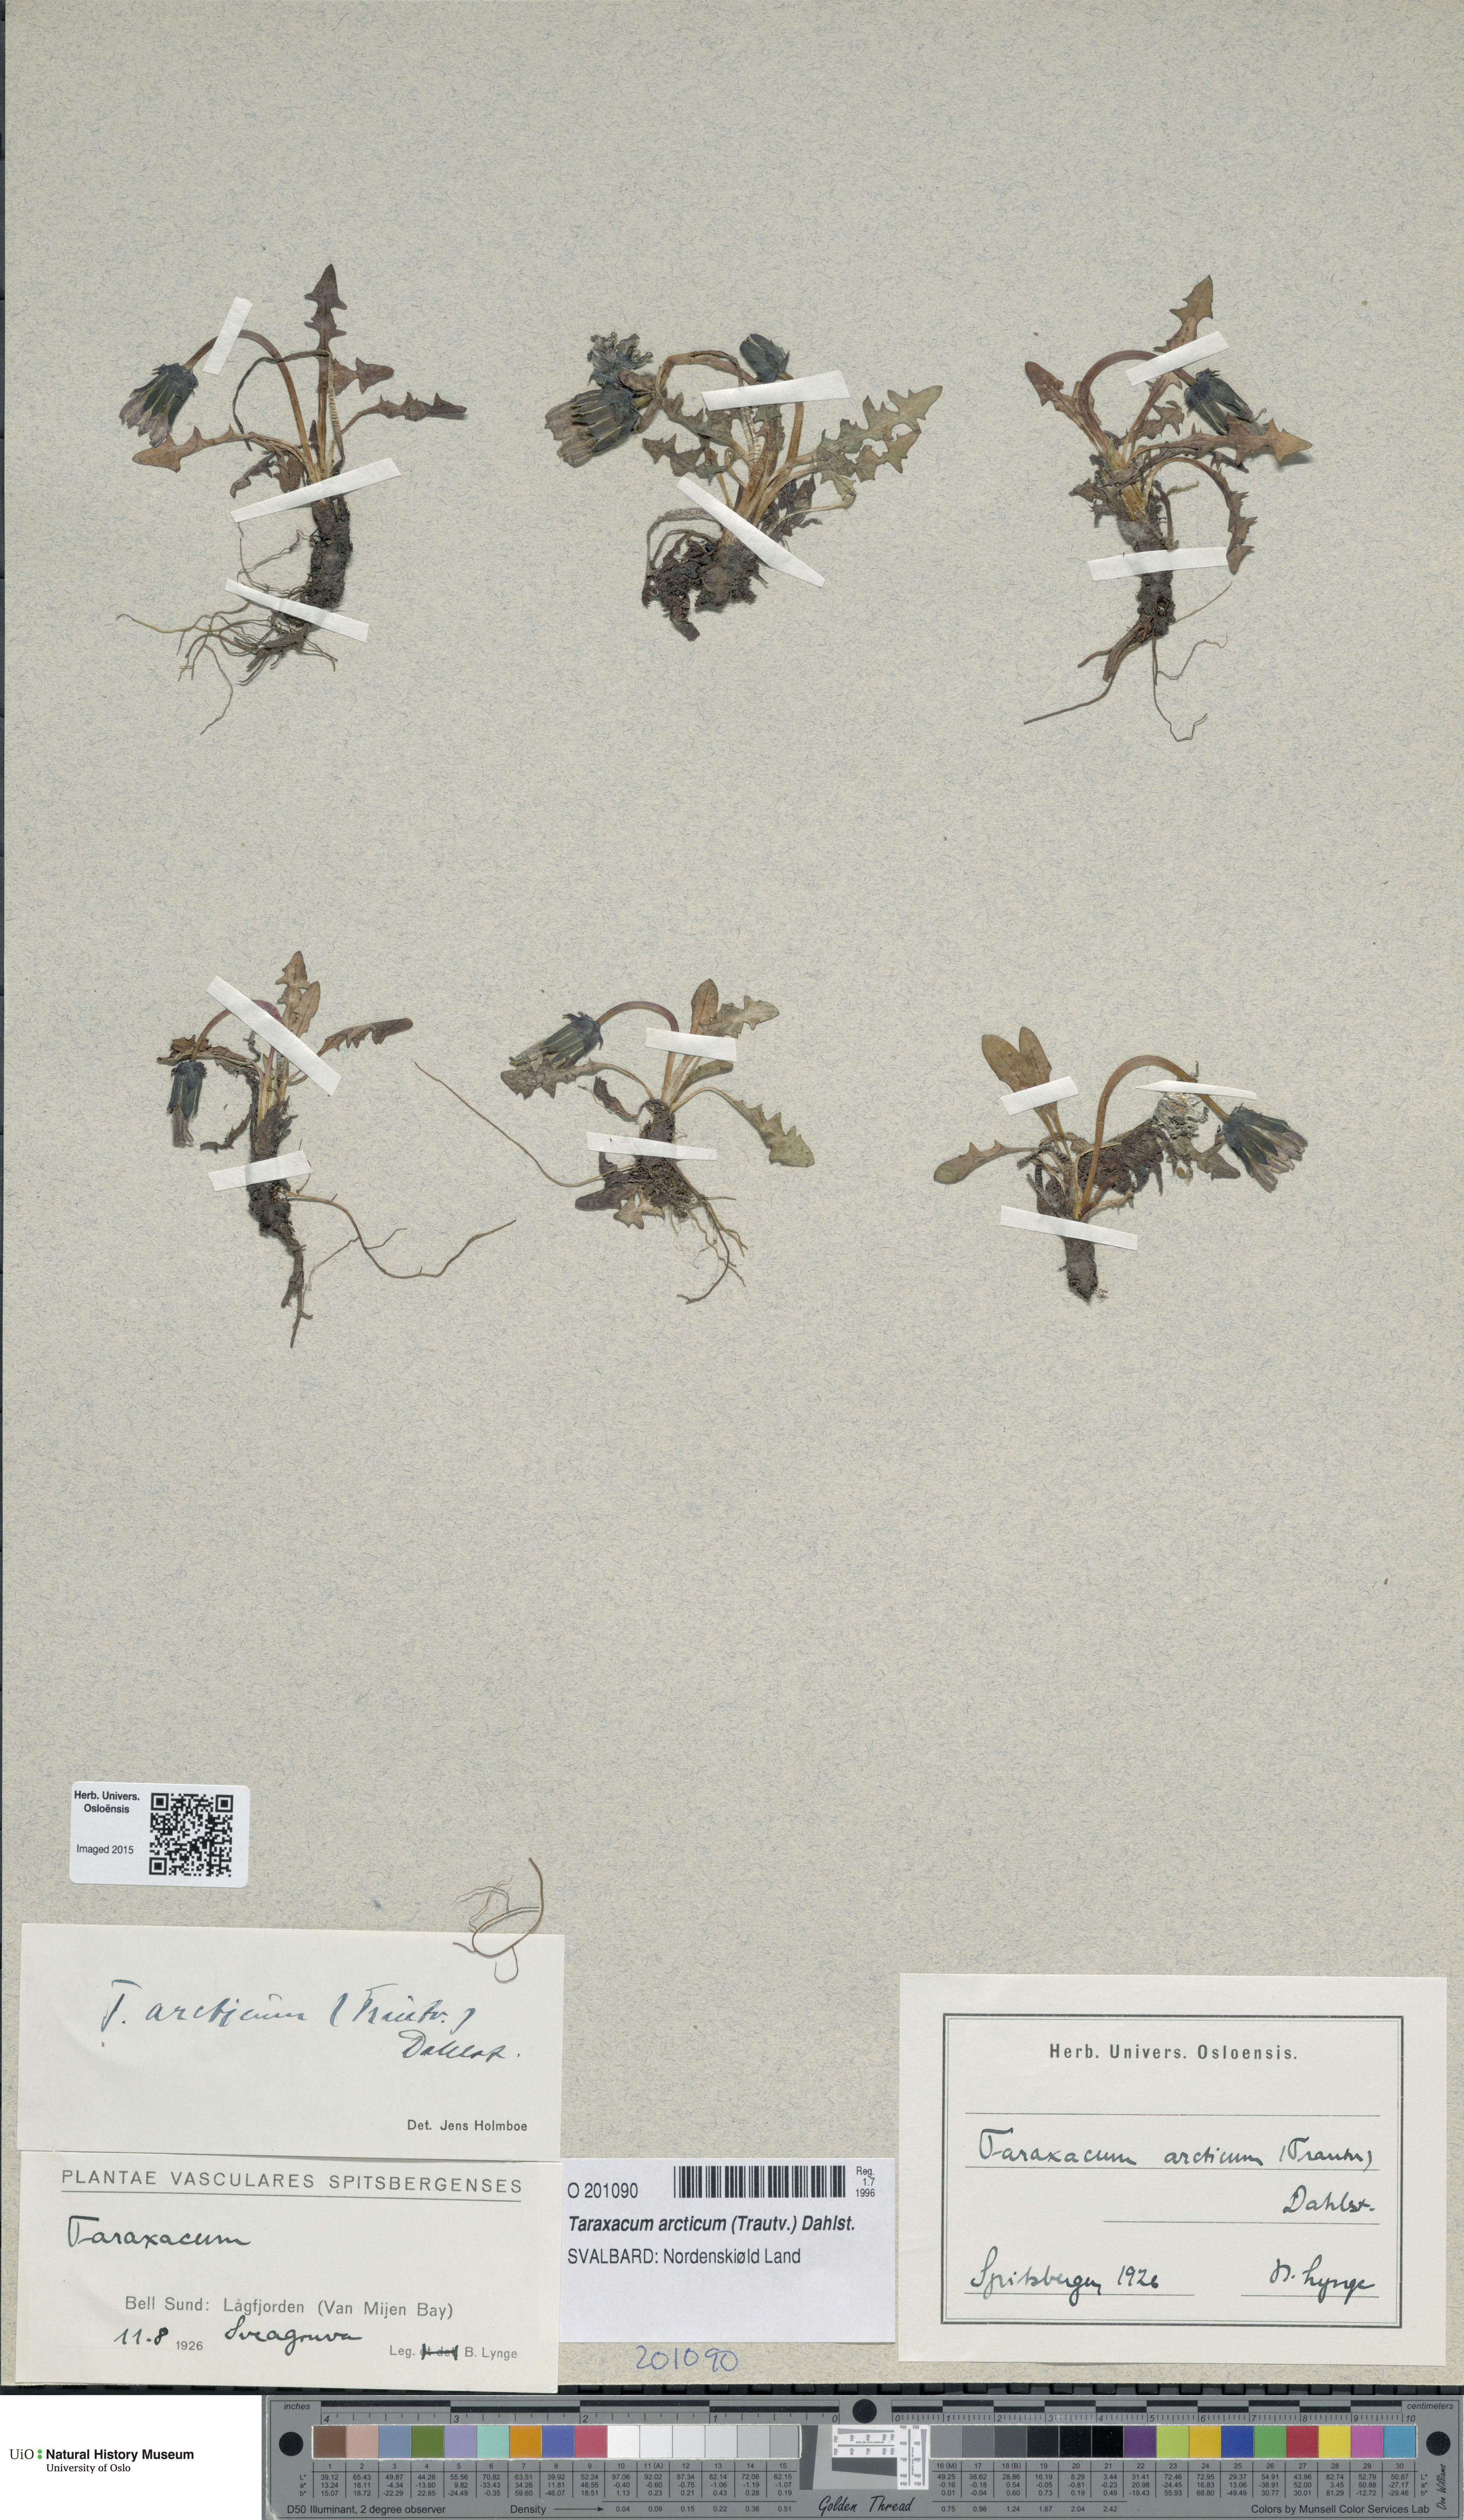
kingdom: Plantae
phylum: Tracheophyta
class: Magnoliopsida
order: Asterales
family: Asteraceae
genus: Taraxacum
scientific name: Taraxacum arcticum
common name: Arctic dandelion
